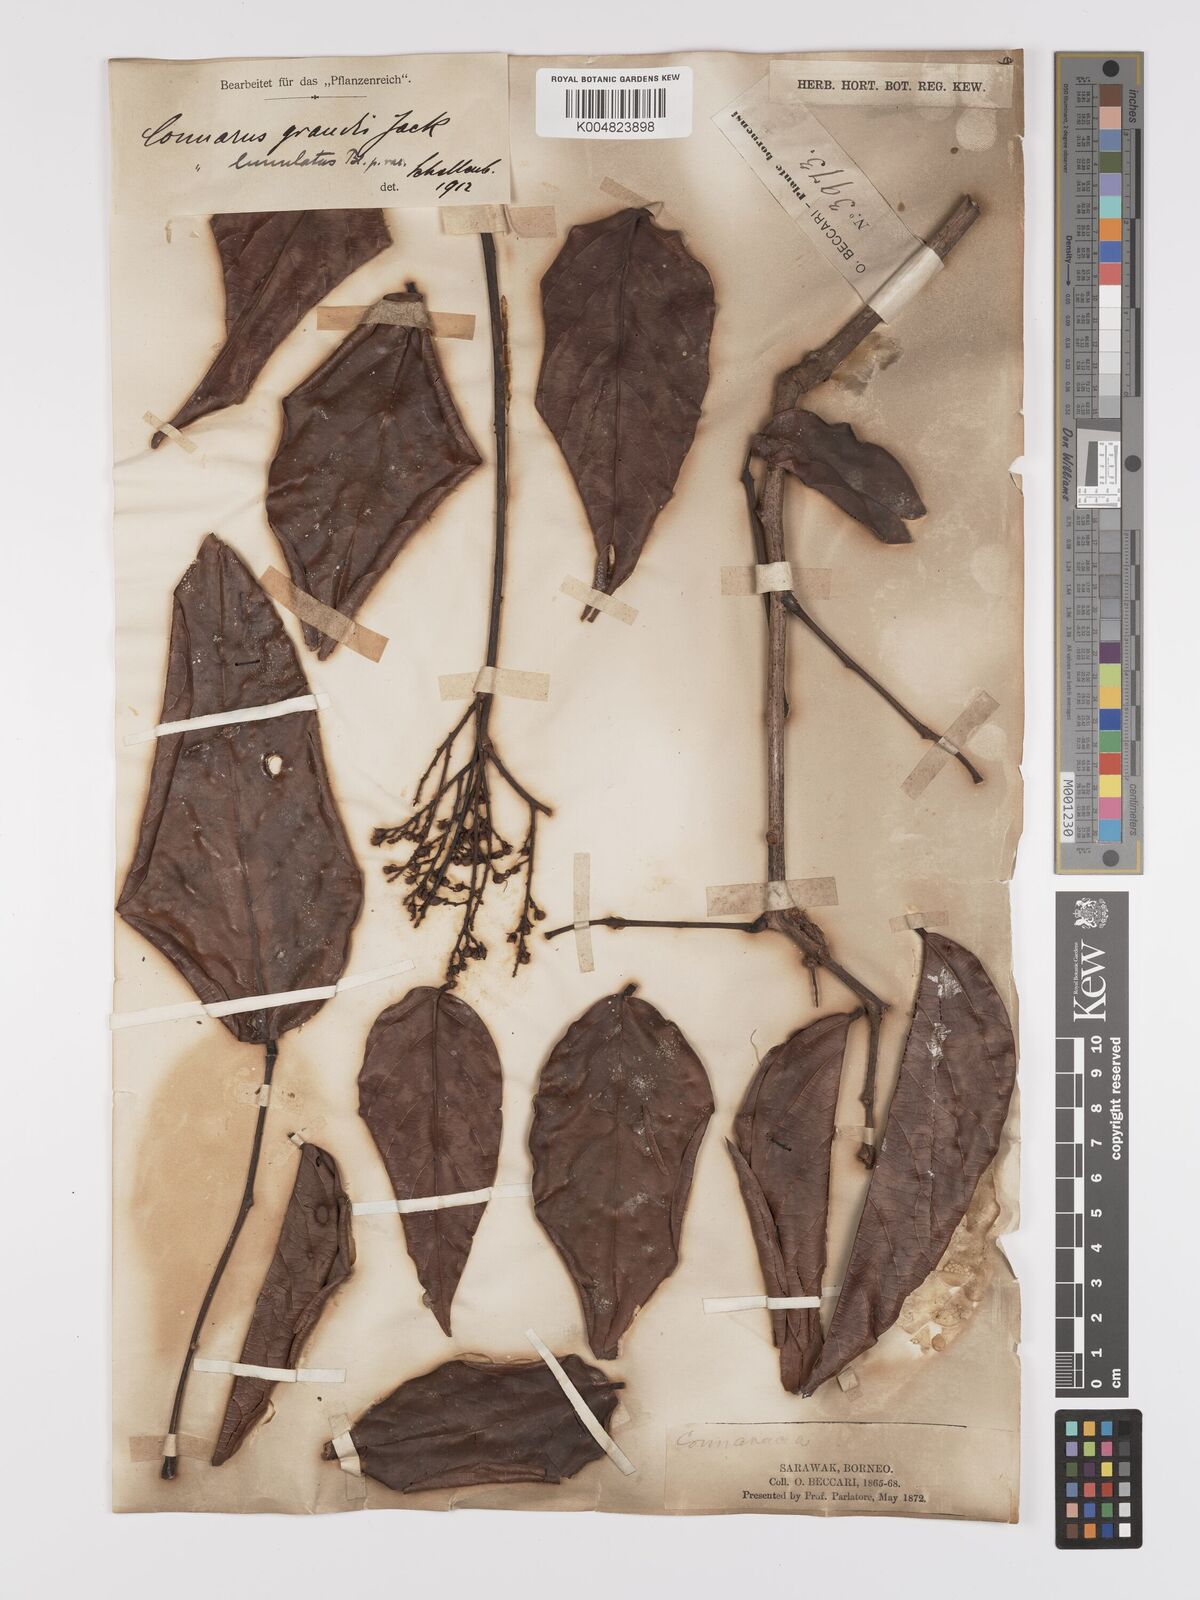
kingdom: Plantae
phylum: Tracheophyta
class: Magnoliopsida
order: Oxalidales
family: Connaraceae
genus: Connarus
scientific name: Connarus grandis
